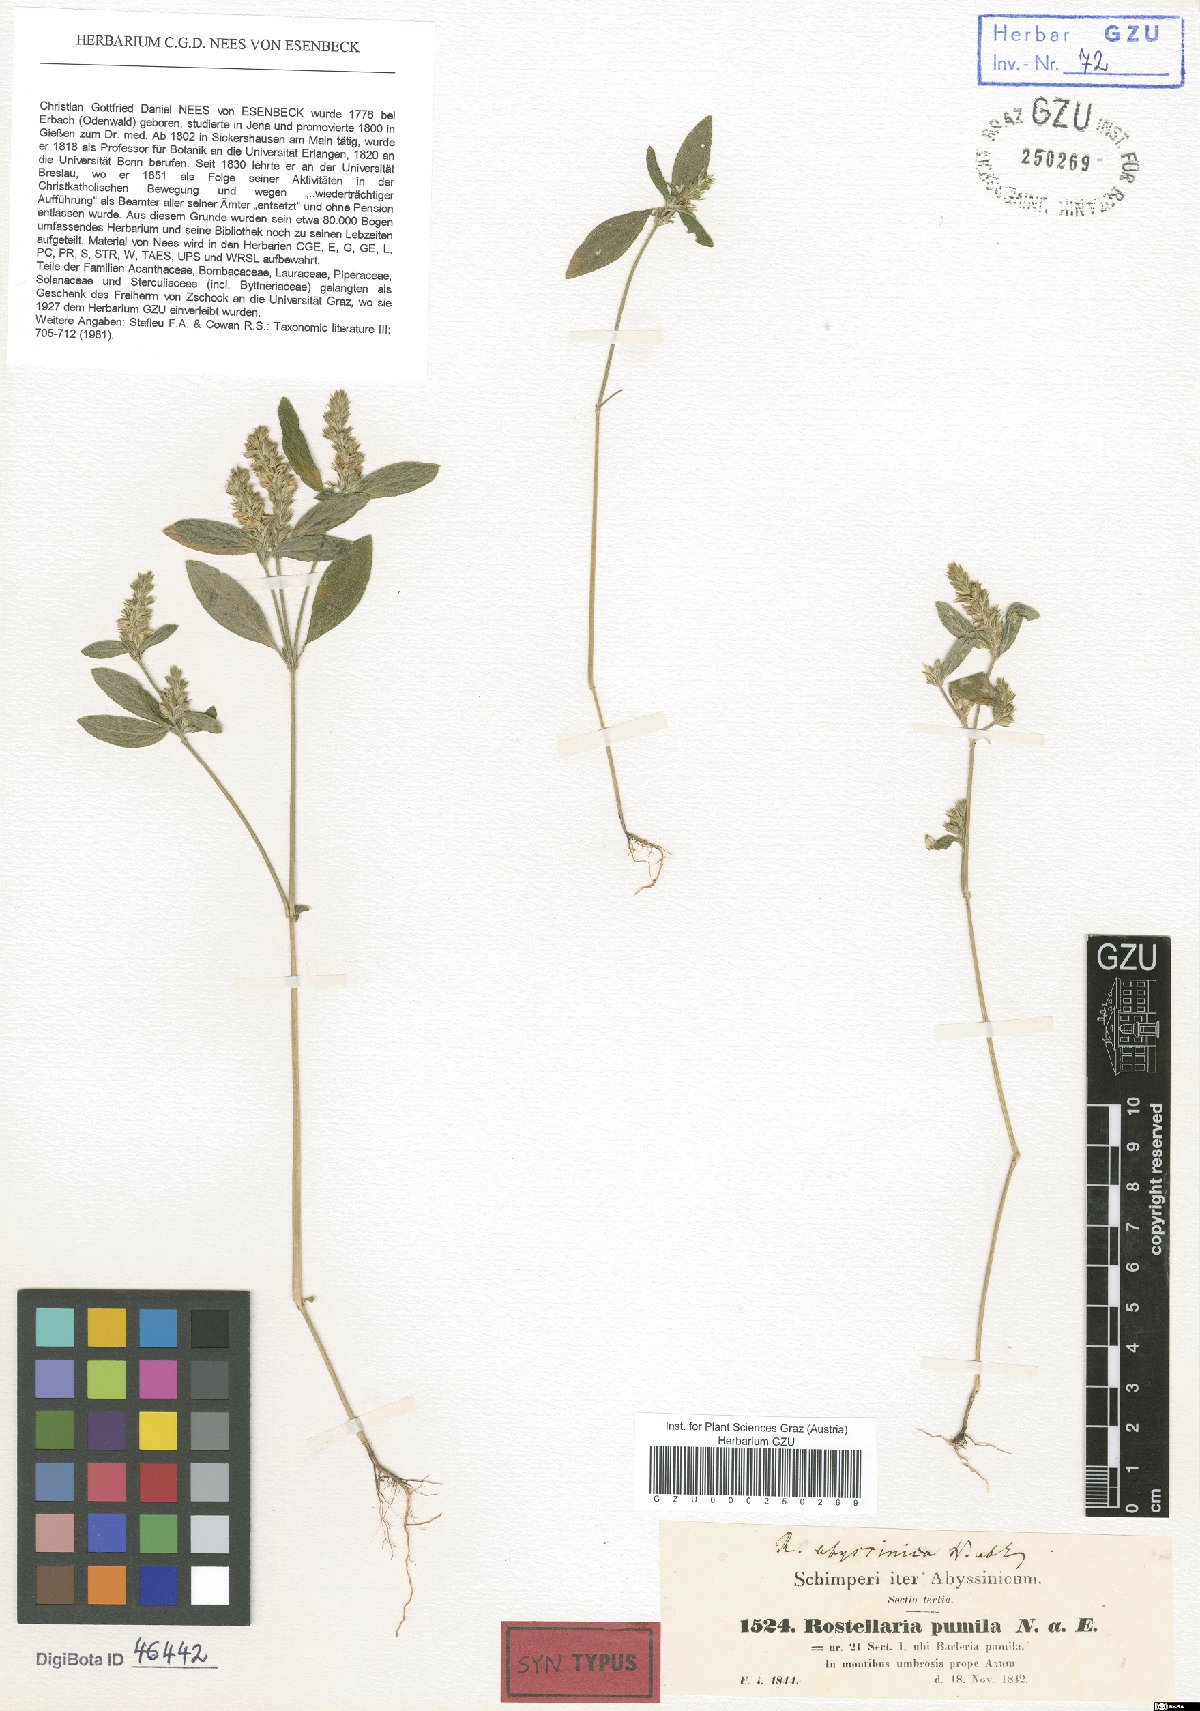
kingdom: Plantae
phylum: Tracheophyta
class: Magnoliopsida
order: Lamiales
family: Acanthaceae
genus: Rostellularia
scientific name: Rostellularia diffusa
